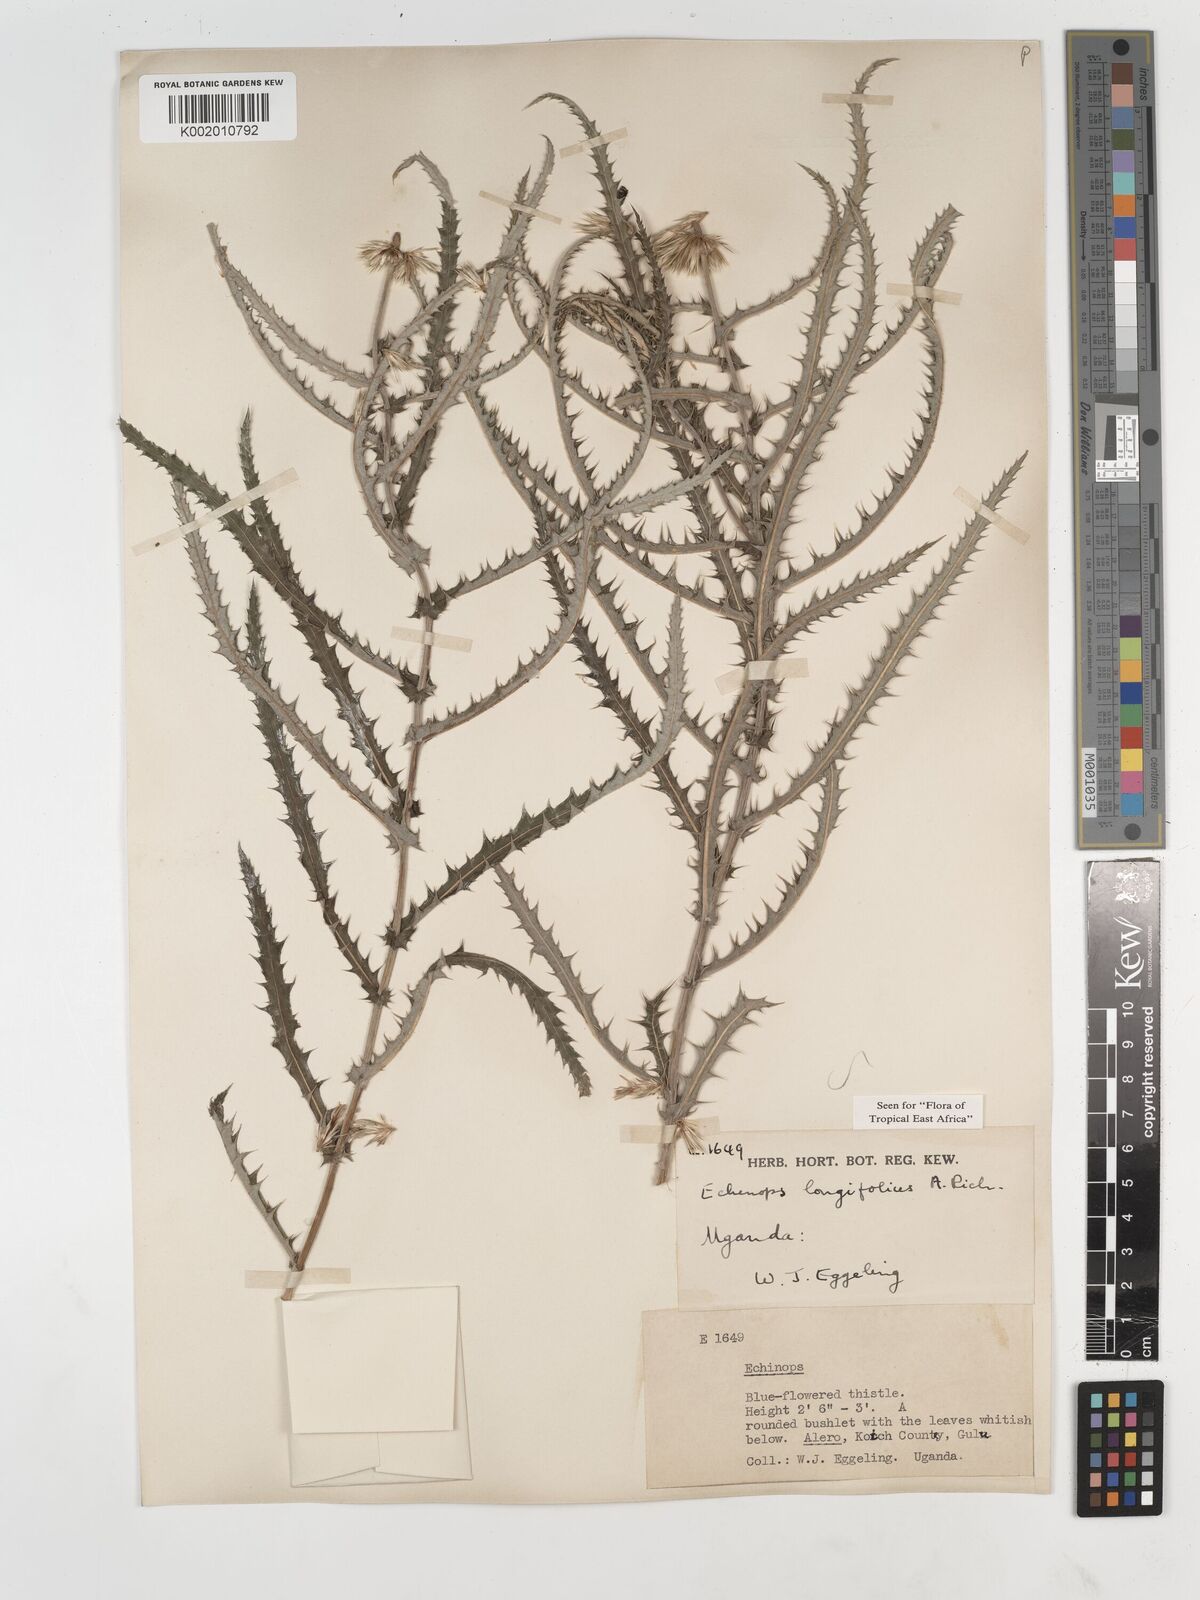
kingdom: Plantae
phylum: Tracheophyta
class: Magnoliopsida
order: Asterales
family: Asteraceae
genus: Echinops
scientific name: Echinops longifolius
